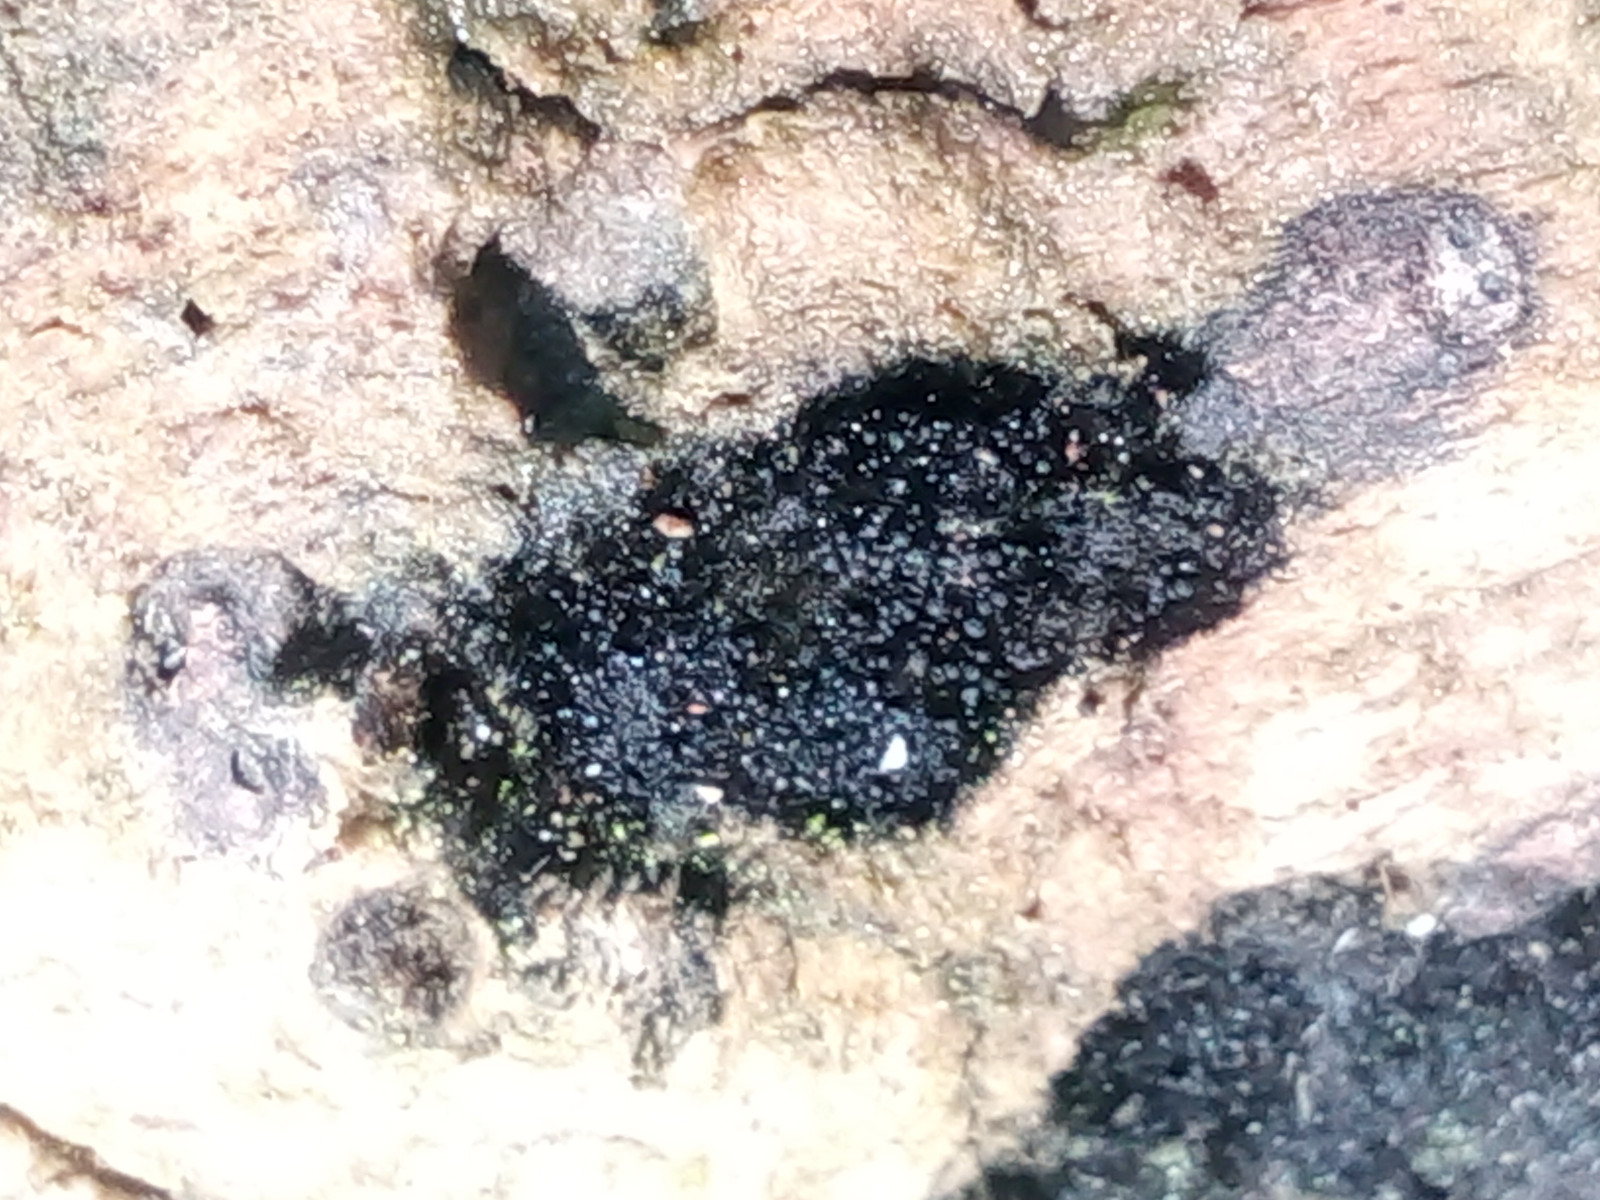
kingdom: Fungi
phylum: Ascomycota
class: Sordariomycetes
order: Coronophorales
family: Chaetosphaerellaceae
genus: Chaetosphaerella
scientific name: Chaetosphaerella phaeostroma
